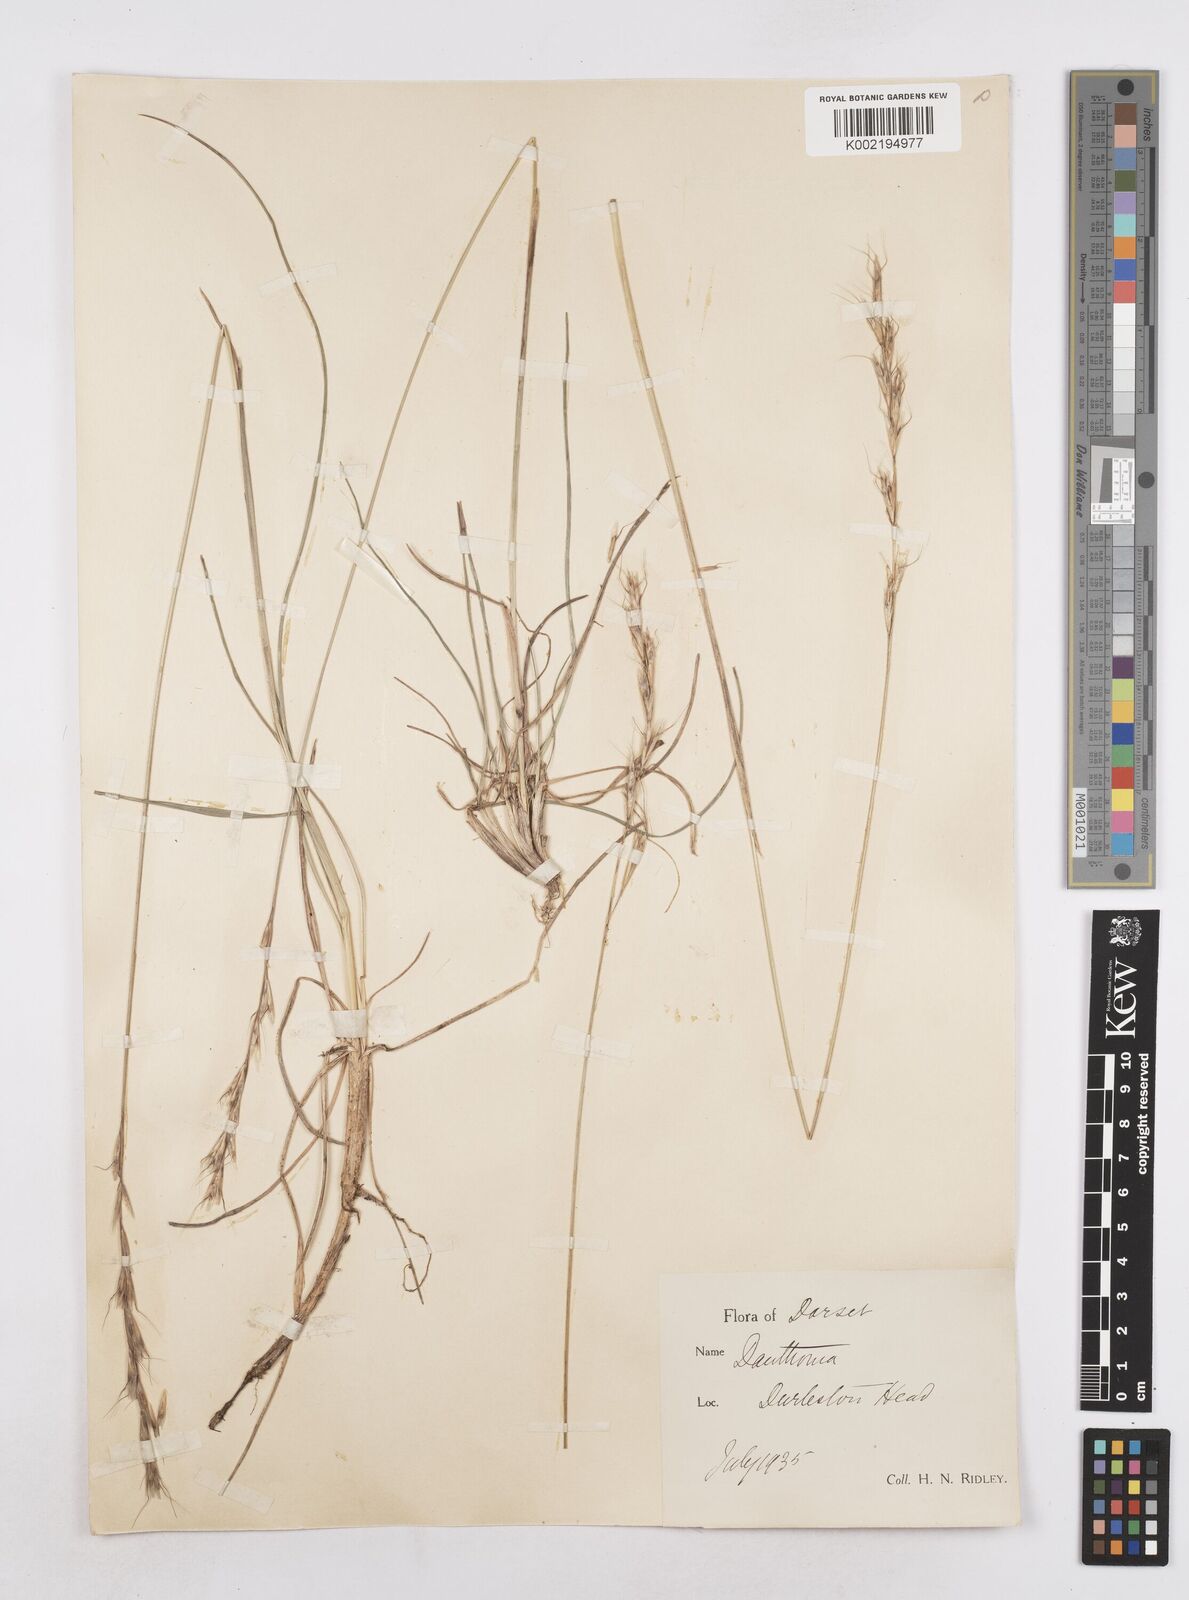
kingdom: Plantae
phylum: Tracheophyta
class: Liliopsida
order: Poales
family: Poaceae
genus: Helictochloa
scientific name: Helictochloa pratensis
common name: Meadow oat grass
